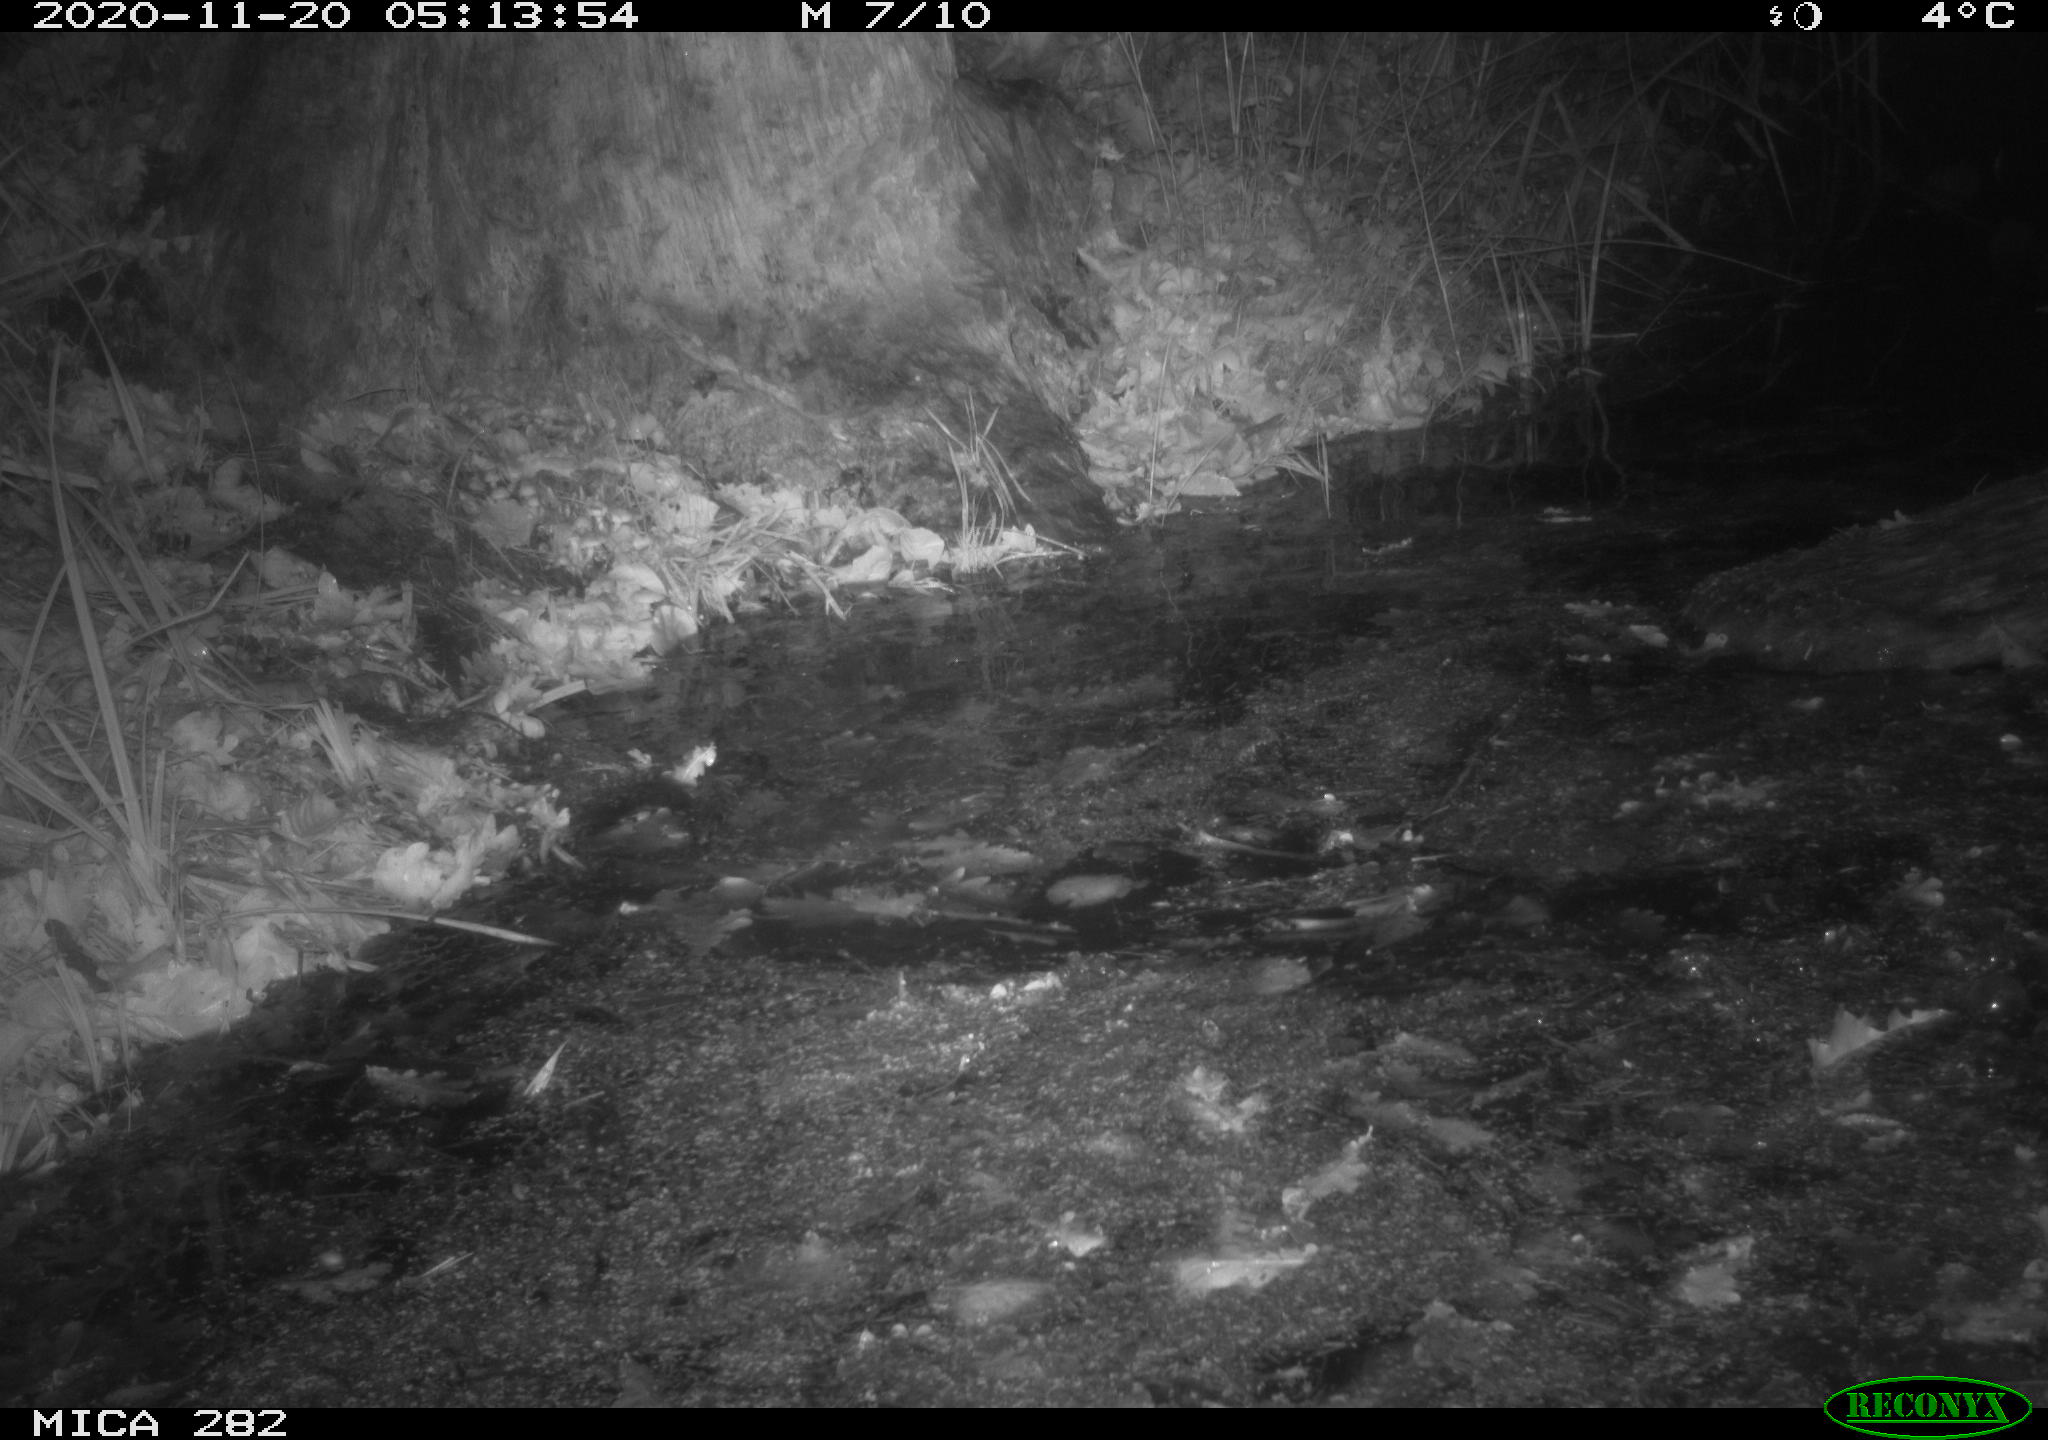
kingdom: Animalia
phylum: Chordata
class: Mammalia
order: Rodentia
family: Castoridae
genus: Castor
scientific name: Castor fiber
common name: Eurasian beaver
